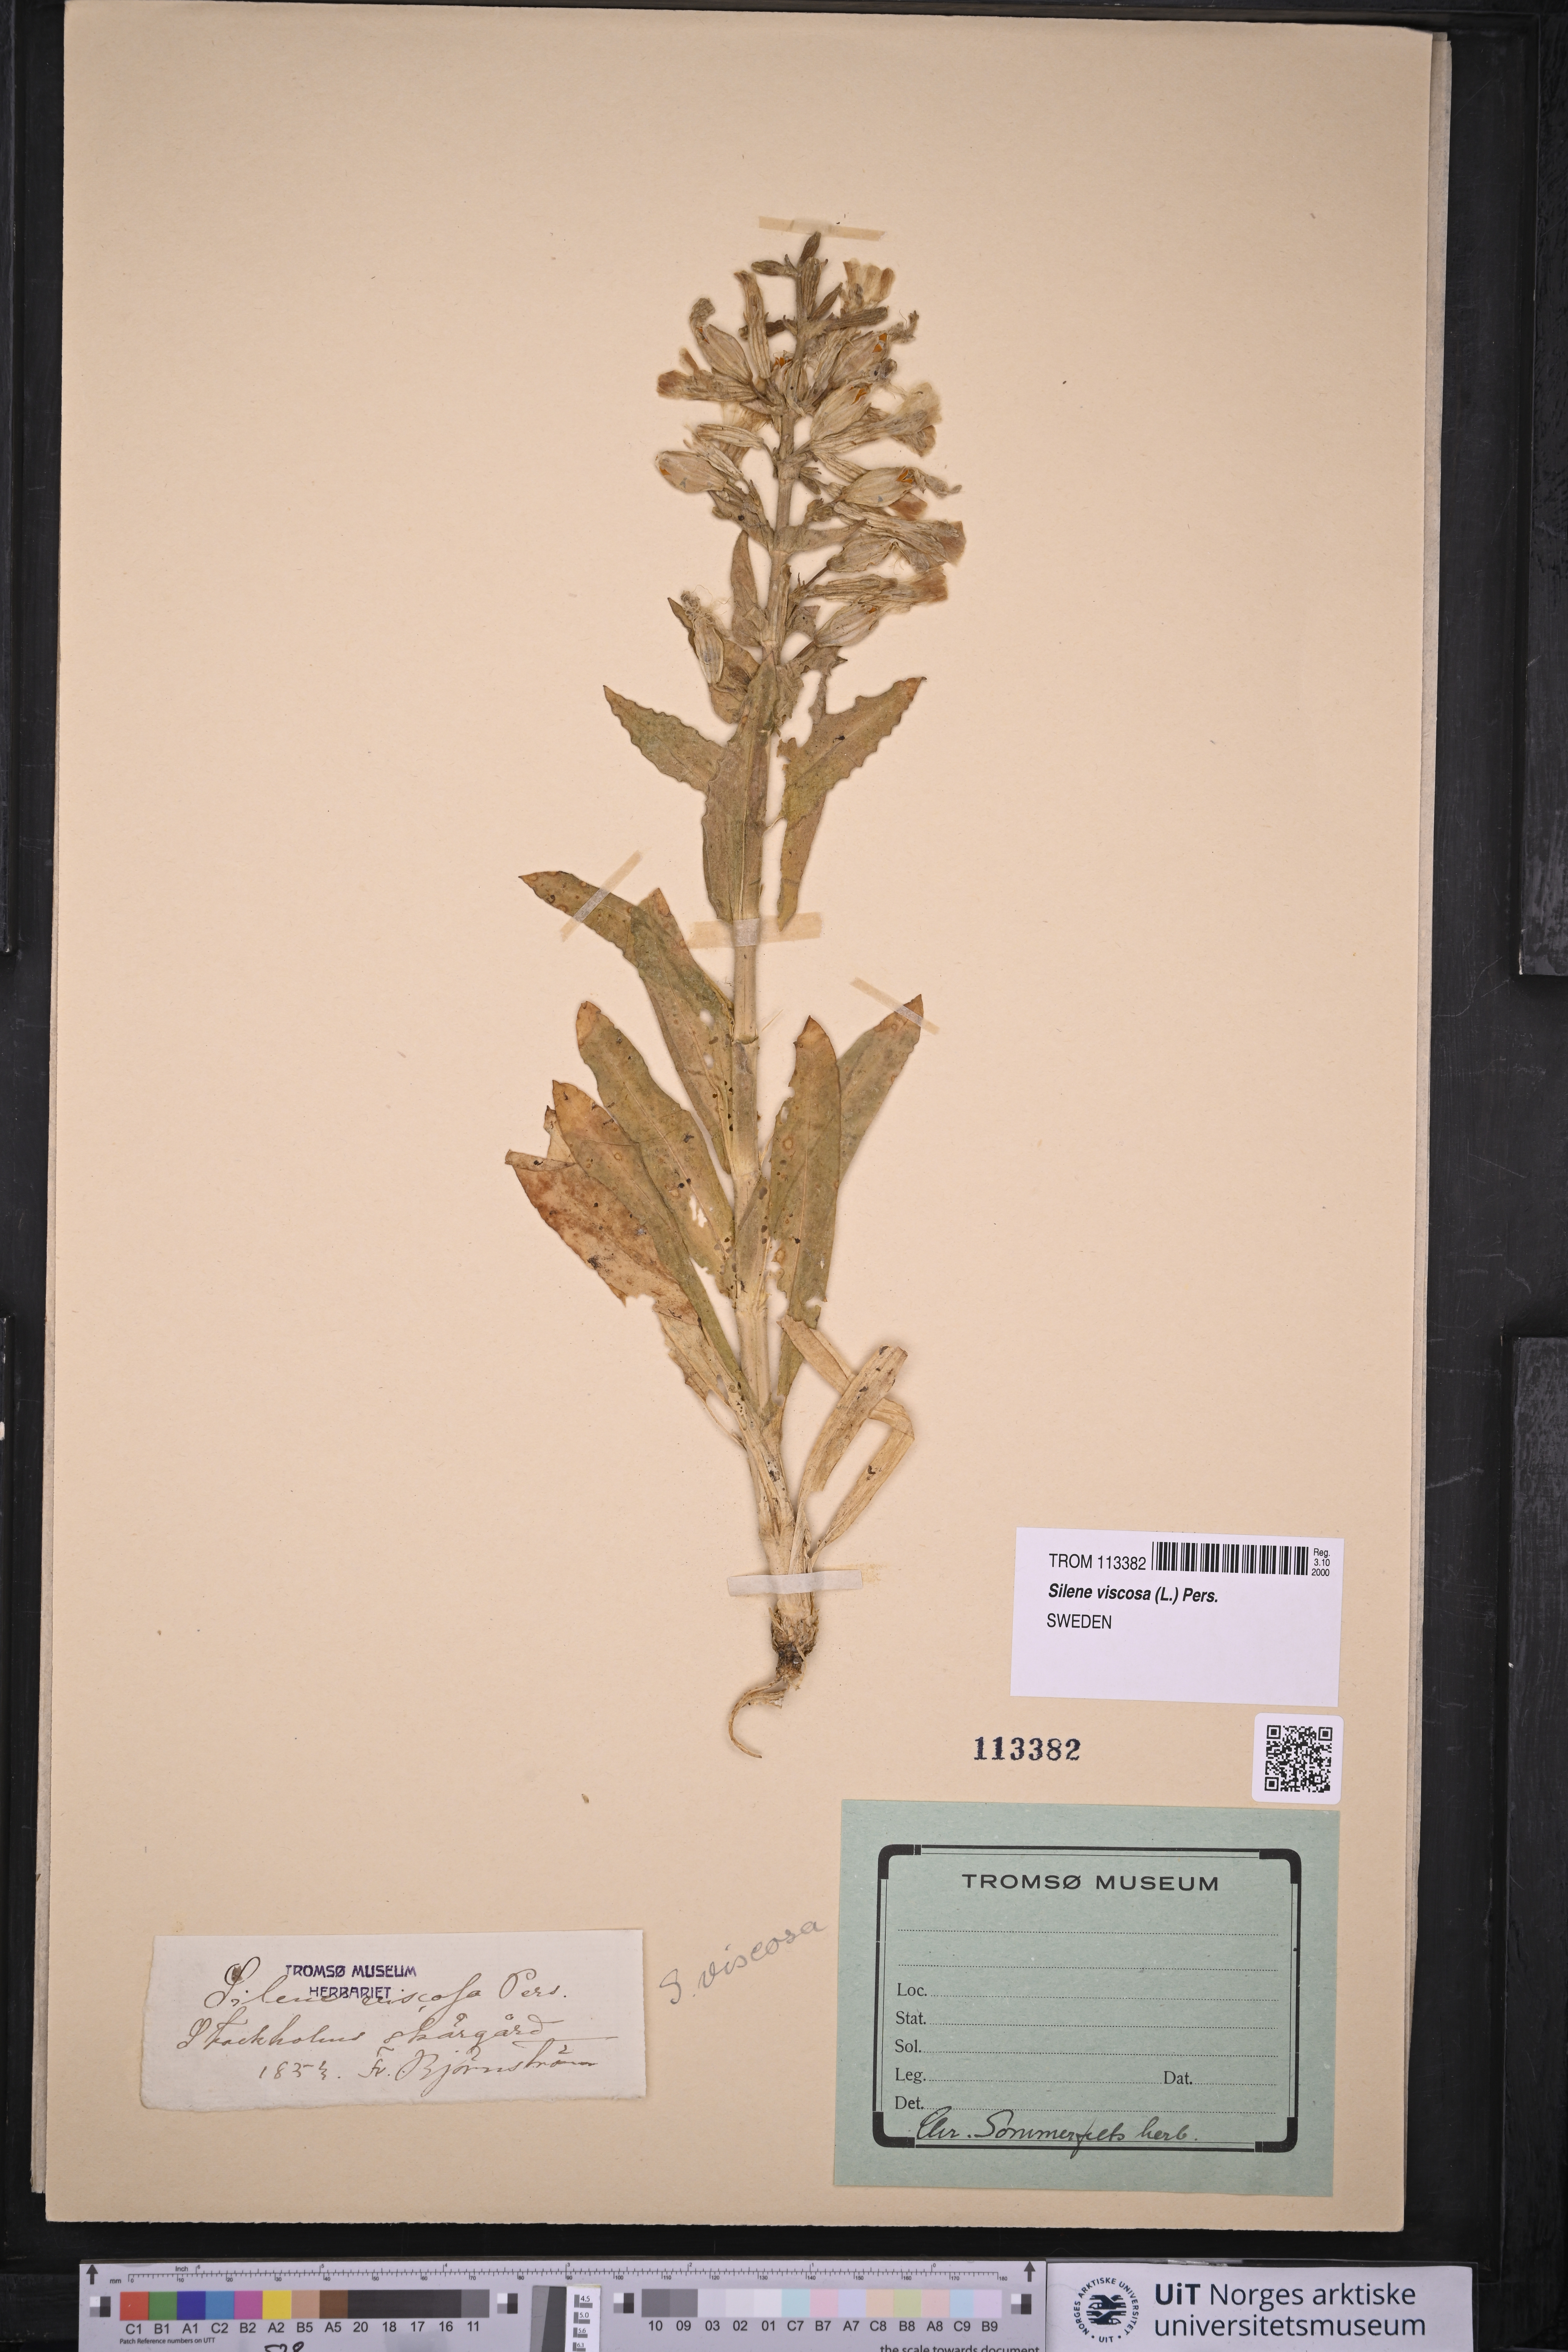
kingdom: Plantae
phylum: Tracheophyta
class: Magnoliopsida
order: Caryophyllales
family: Caryophyllaceae
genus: Silene
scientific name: Silene viscosa
